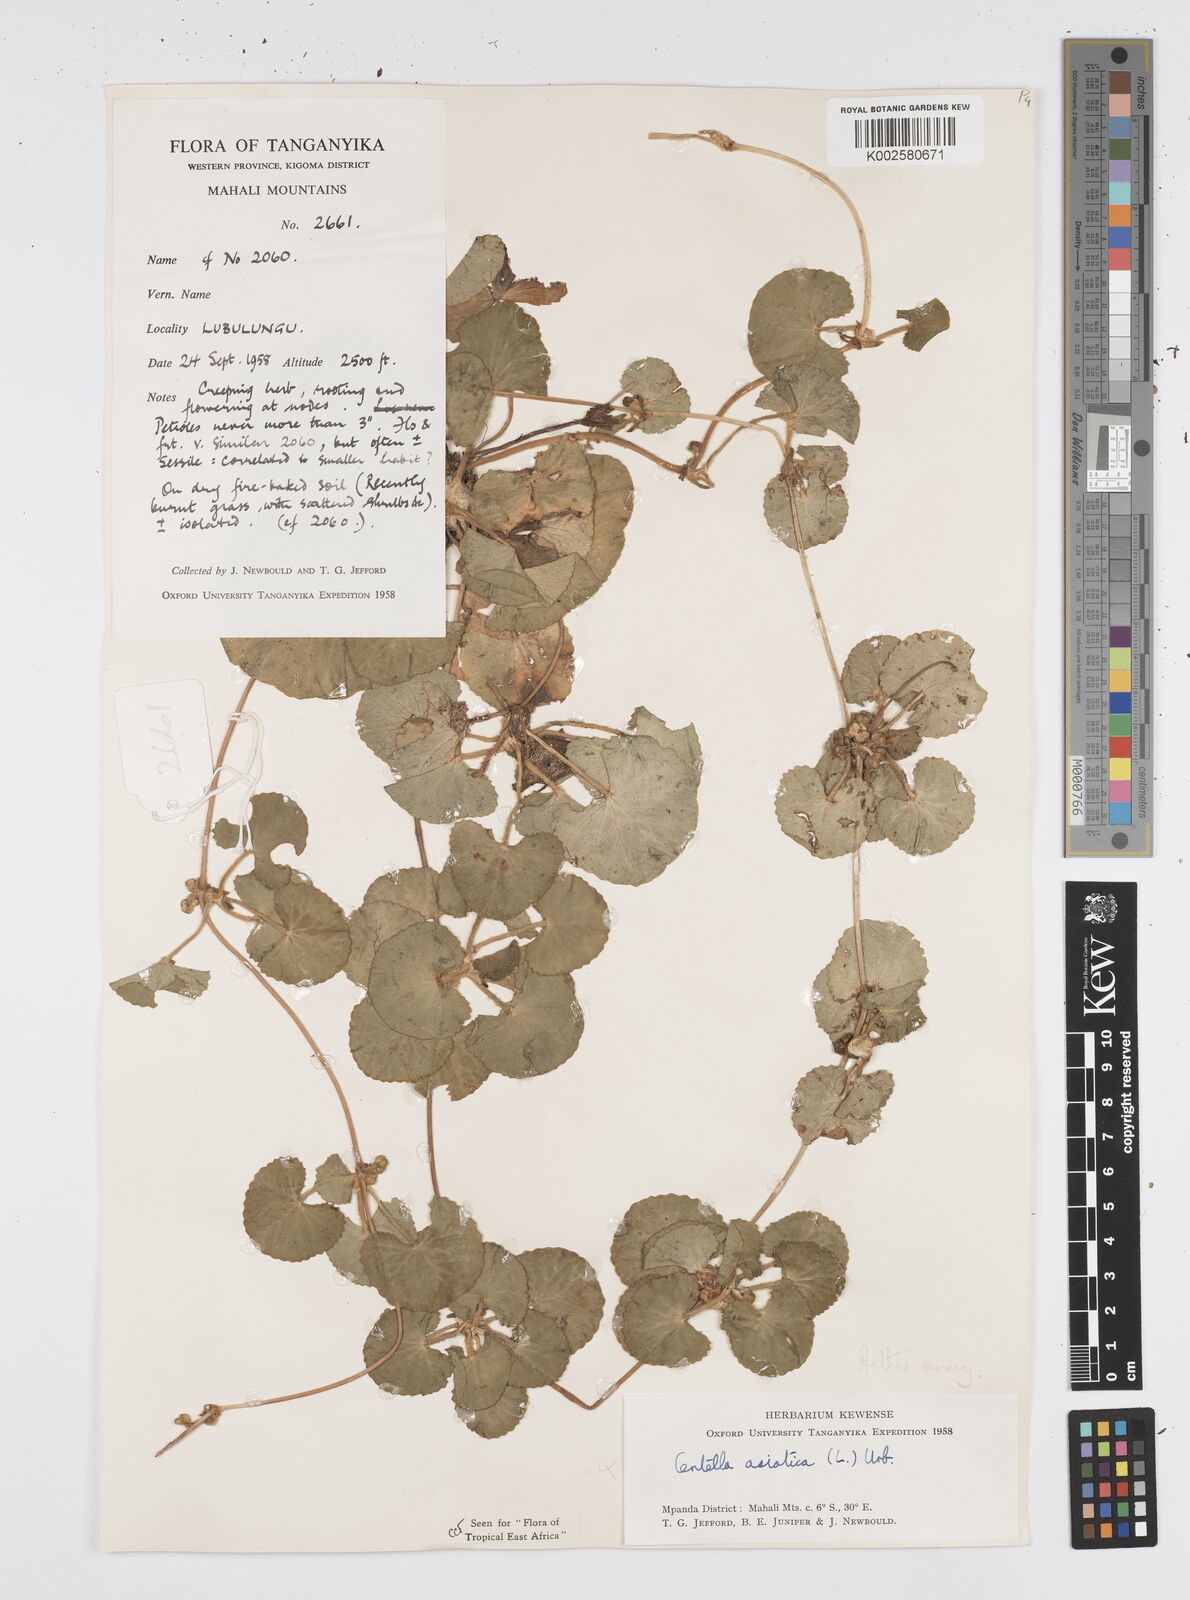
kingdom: Plantae
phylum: Tracheophyta
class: Magnoliopsida
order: Apiales
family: Apiaceae
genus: Centella
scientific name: Centella asiatica
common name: Spadeleaf
